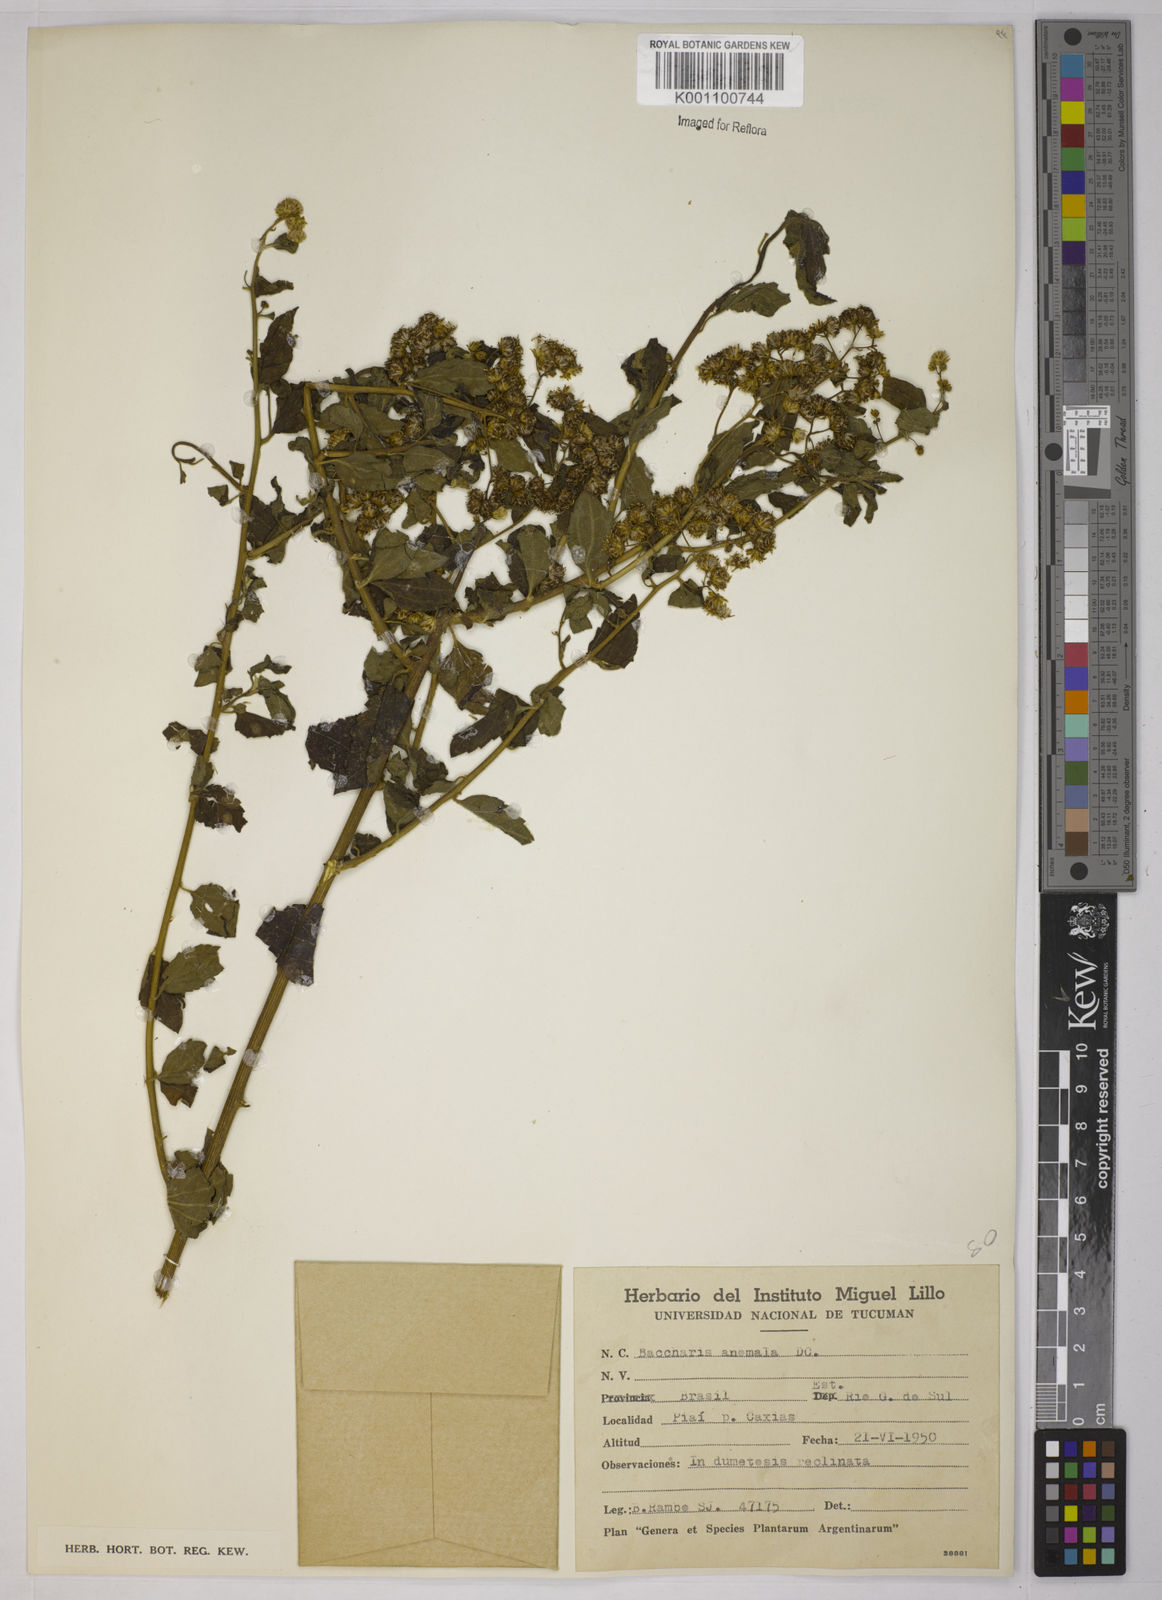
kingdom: Plantae
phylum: Tracheophyta
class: Magnoliopsida
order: Asterales
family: Asteraceae
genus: Baccharis
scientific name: Baccharis anomala
